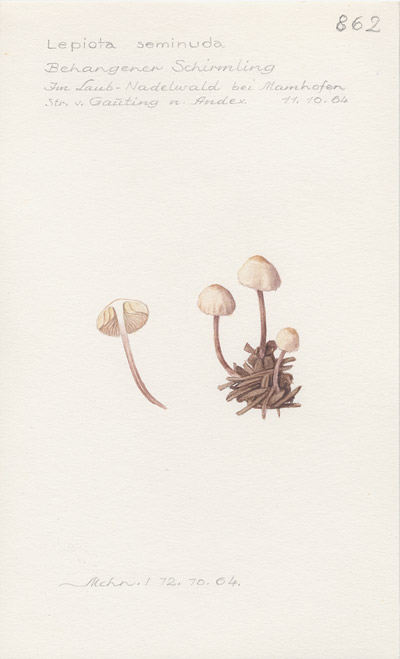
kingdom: Fungi
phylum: Basidiomycota
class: Agaricomycetes
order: Agaricales
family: Agaricaceae
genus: Cystolepiota
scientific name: Cystolepiota seminuda
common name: Bearded dapperling
